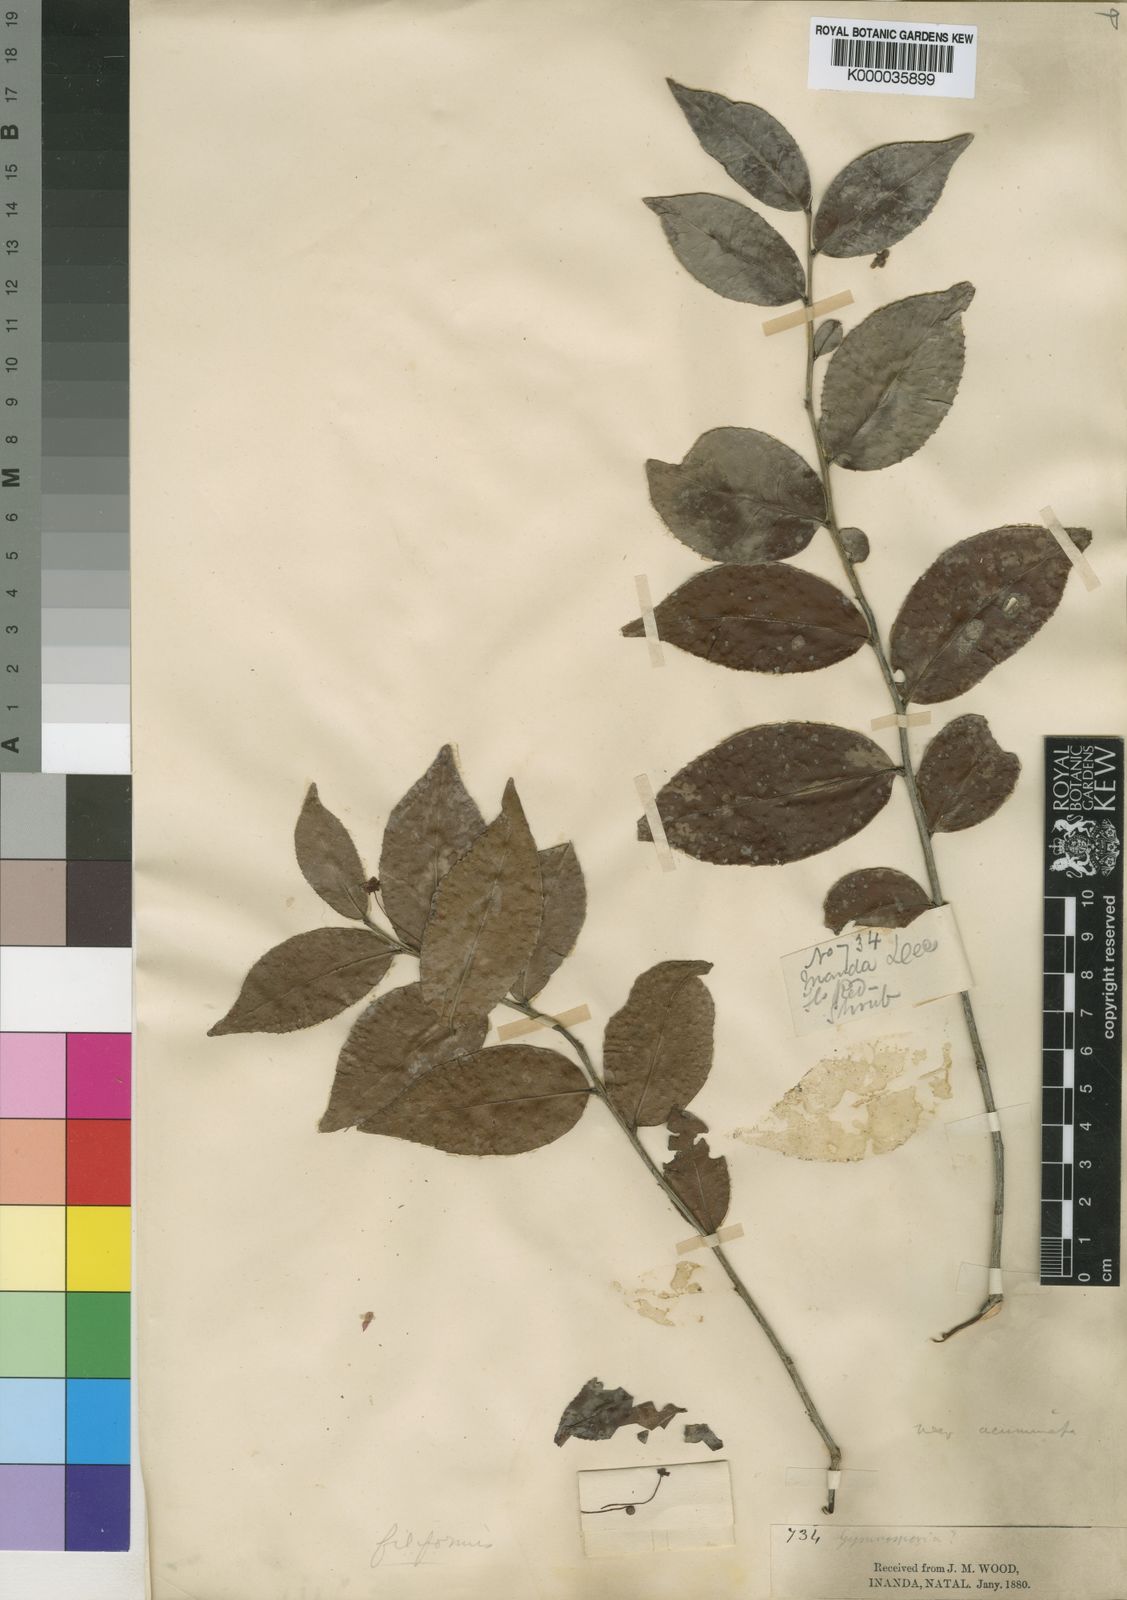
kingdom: Plantae
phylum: Tracheophyta
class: Magnoliopsida
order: Celastrales
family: Celastraceae
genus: Gymnosporia
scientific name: Gymnosporia acuminata
